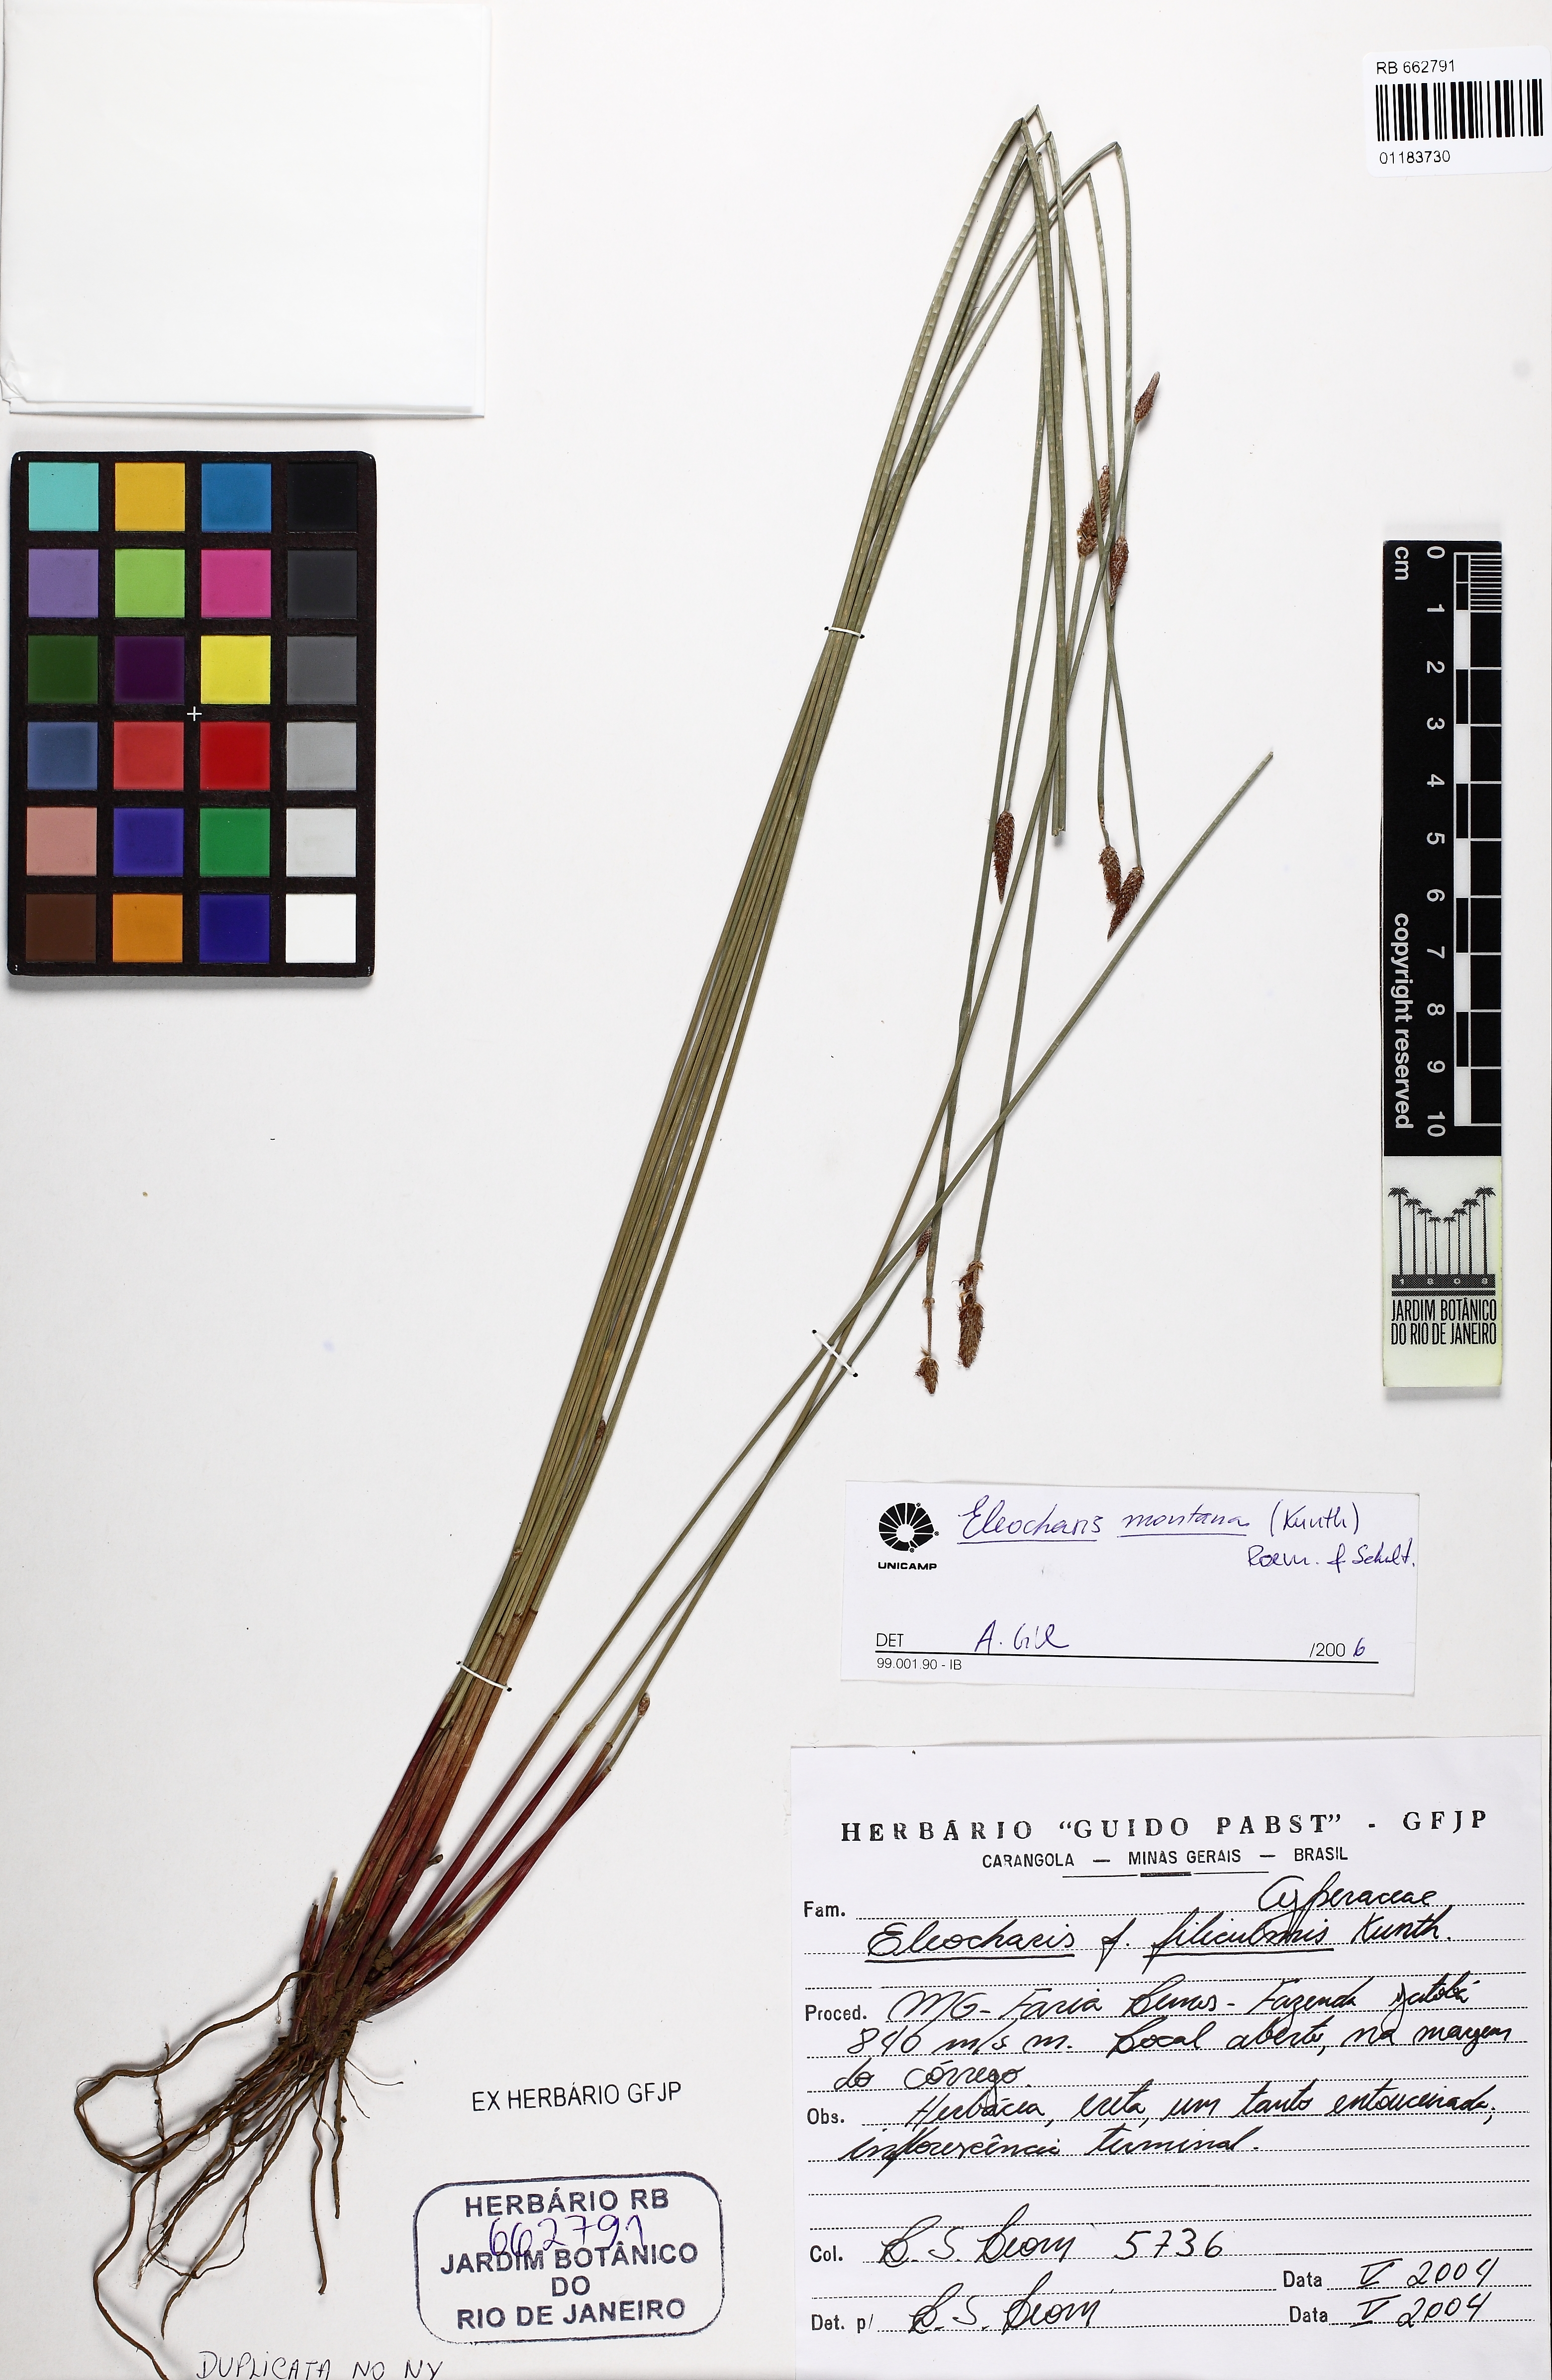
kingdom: Plantae
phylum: Tracheophyta
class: Liliopsida
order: Poales
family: Cyperaceae
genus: Eleocharis
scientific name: Eleocharis montana
